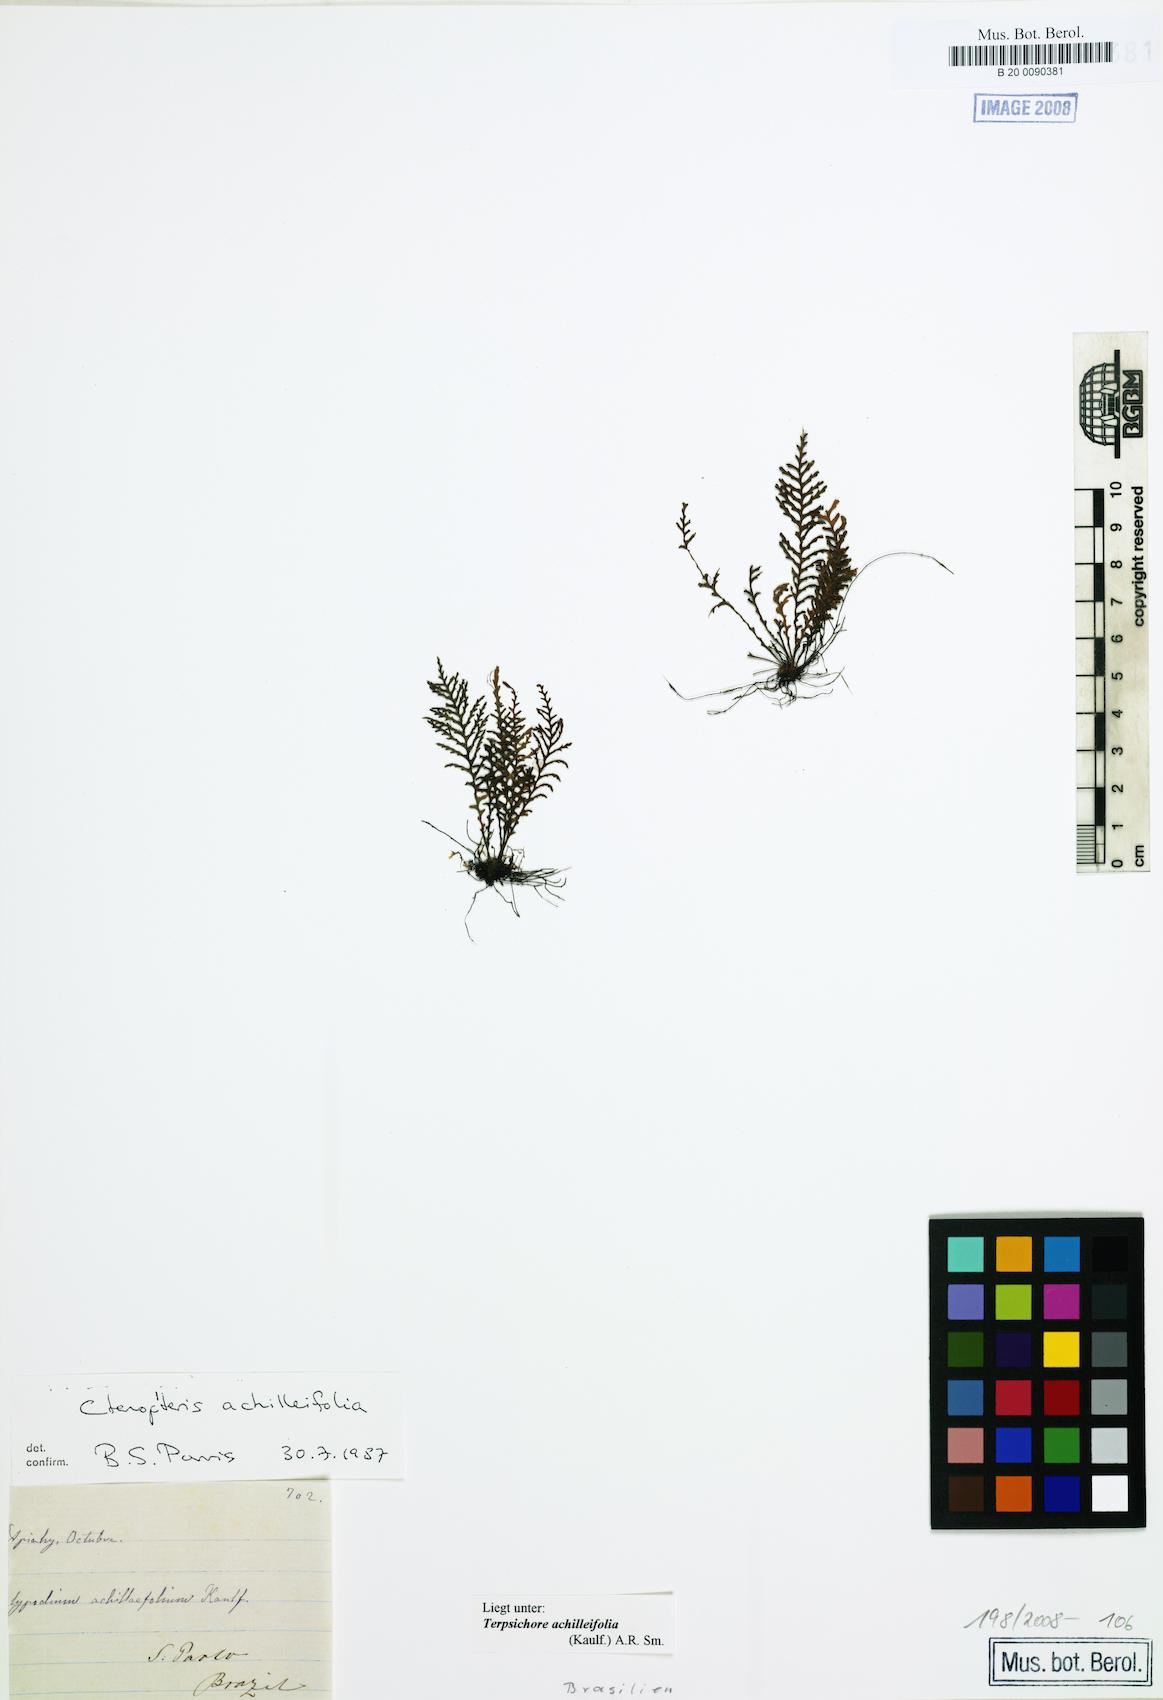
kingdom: Plantae
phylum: Tracheophyta
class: Polypodiopsida
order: Polypodiales
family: Polypodiaceae
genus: Moranopteris
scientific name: Moranopteris achilleifolia
